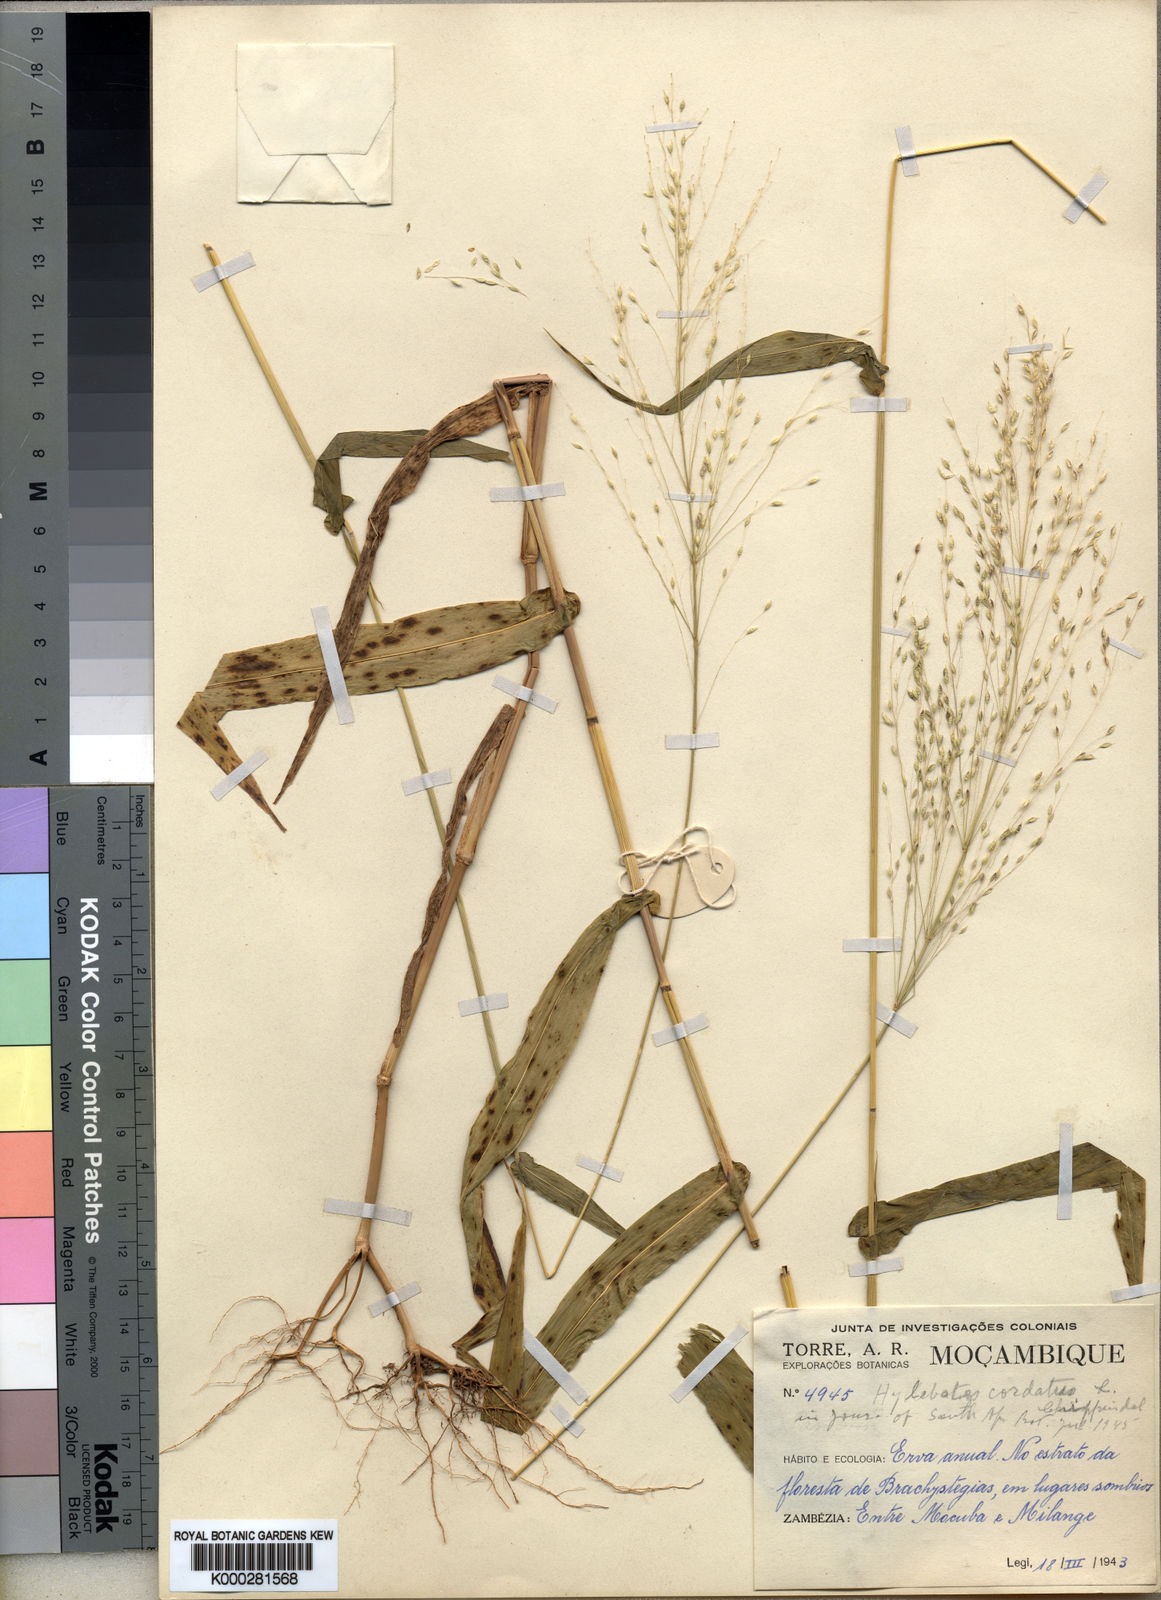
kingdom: Plantae
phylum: Tracheophyta
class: Liliopsida
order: Poales
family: Poaceae
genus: Hylebates
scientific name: Hylebates cordatus
